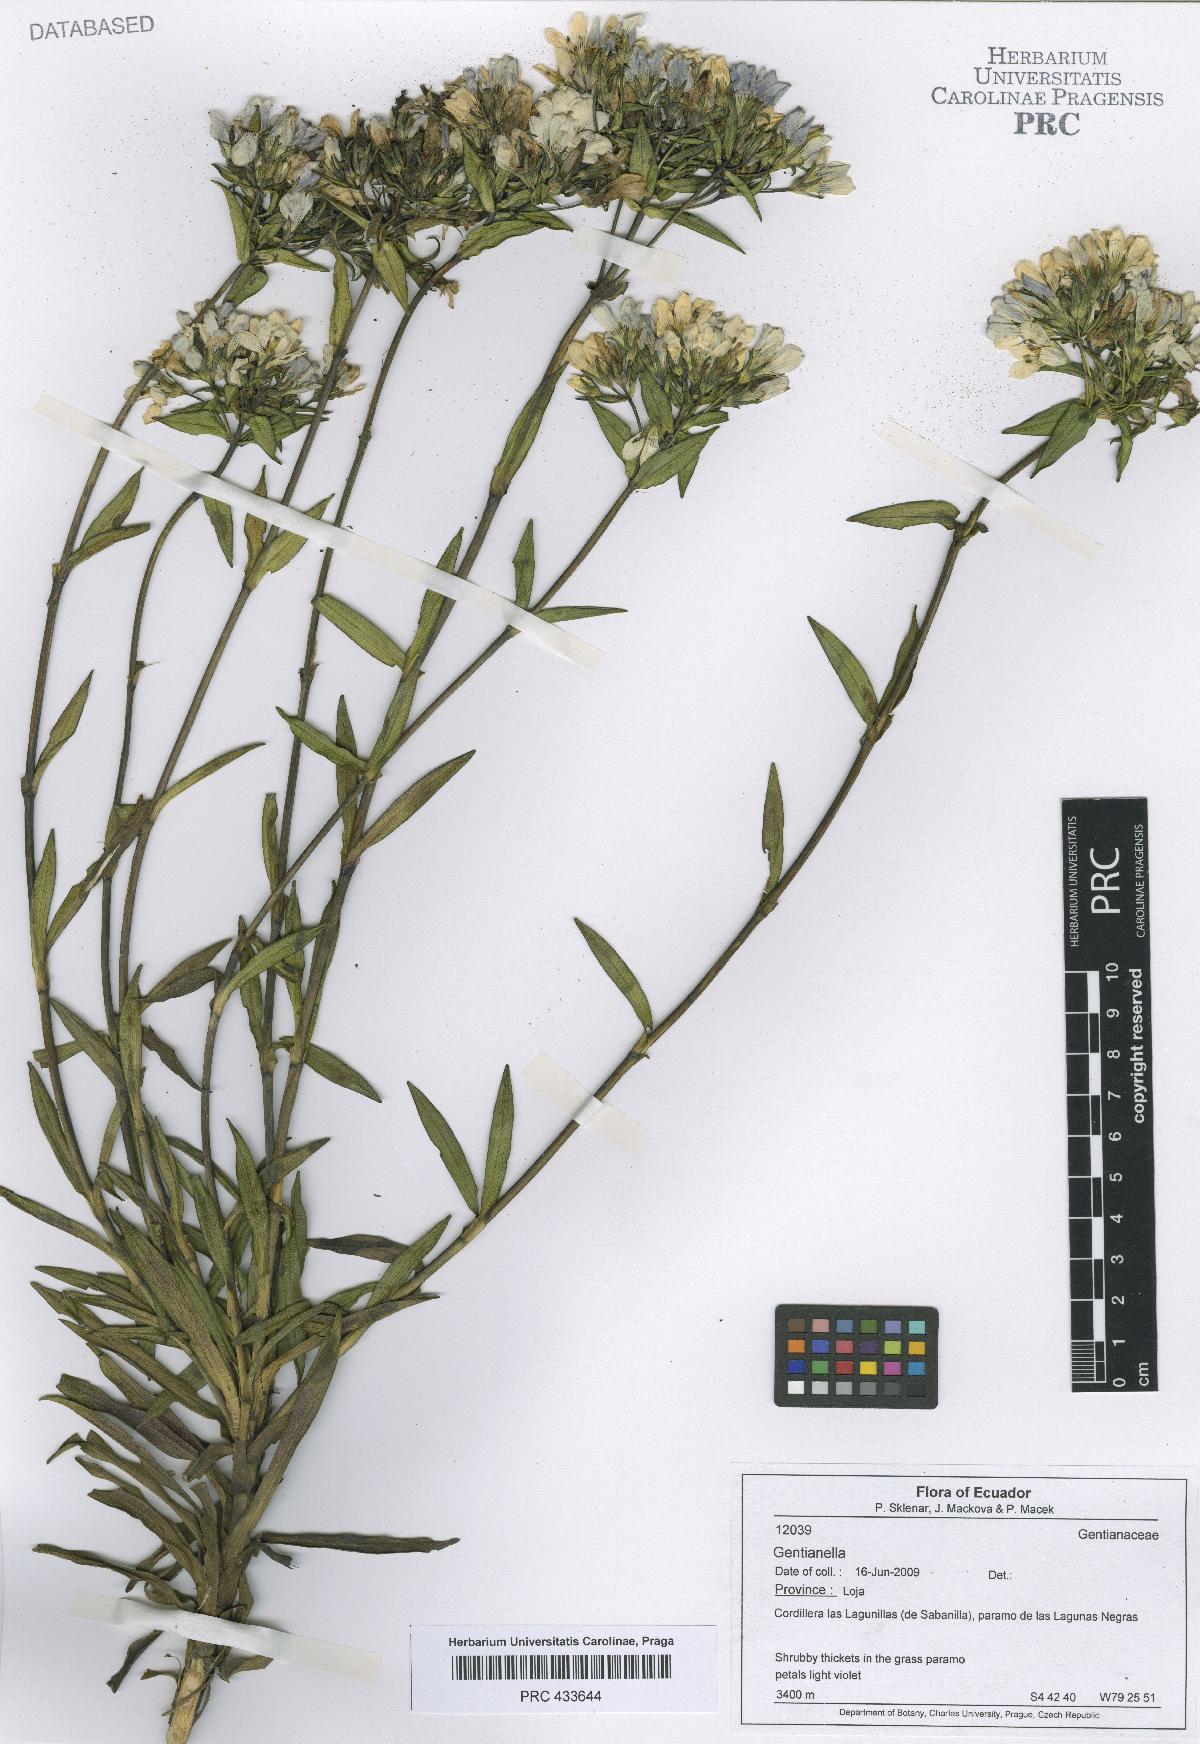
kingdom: Plantae
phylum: Tracheophyta
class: Magnoliopsida
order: Gentianales
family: Gentianaceae
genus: Gentianella
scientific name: Gentianella
